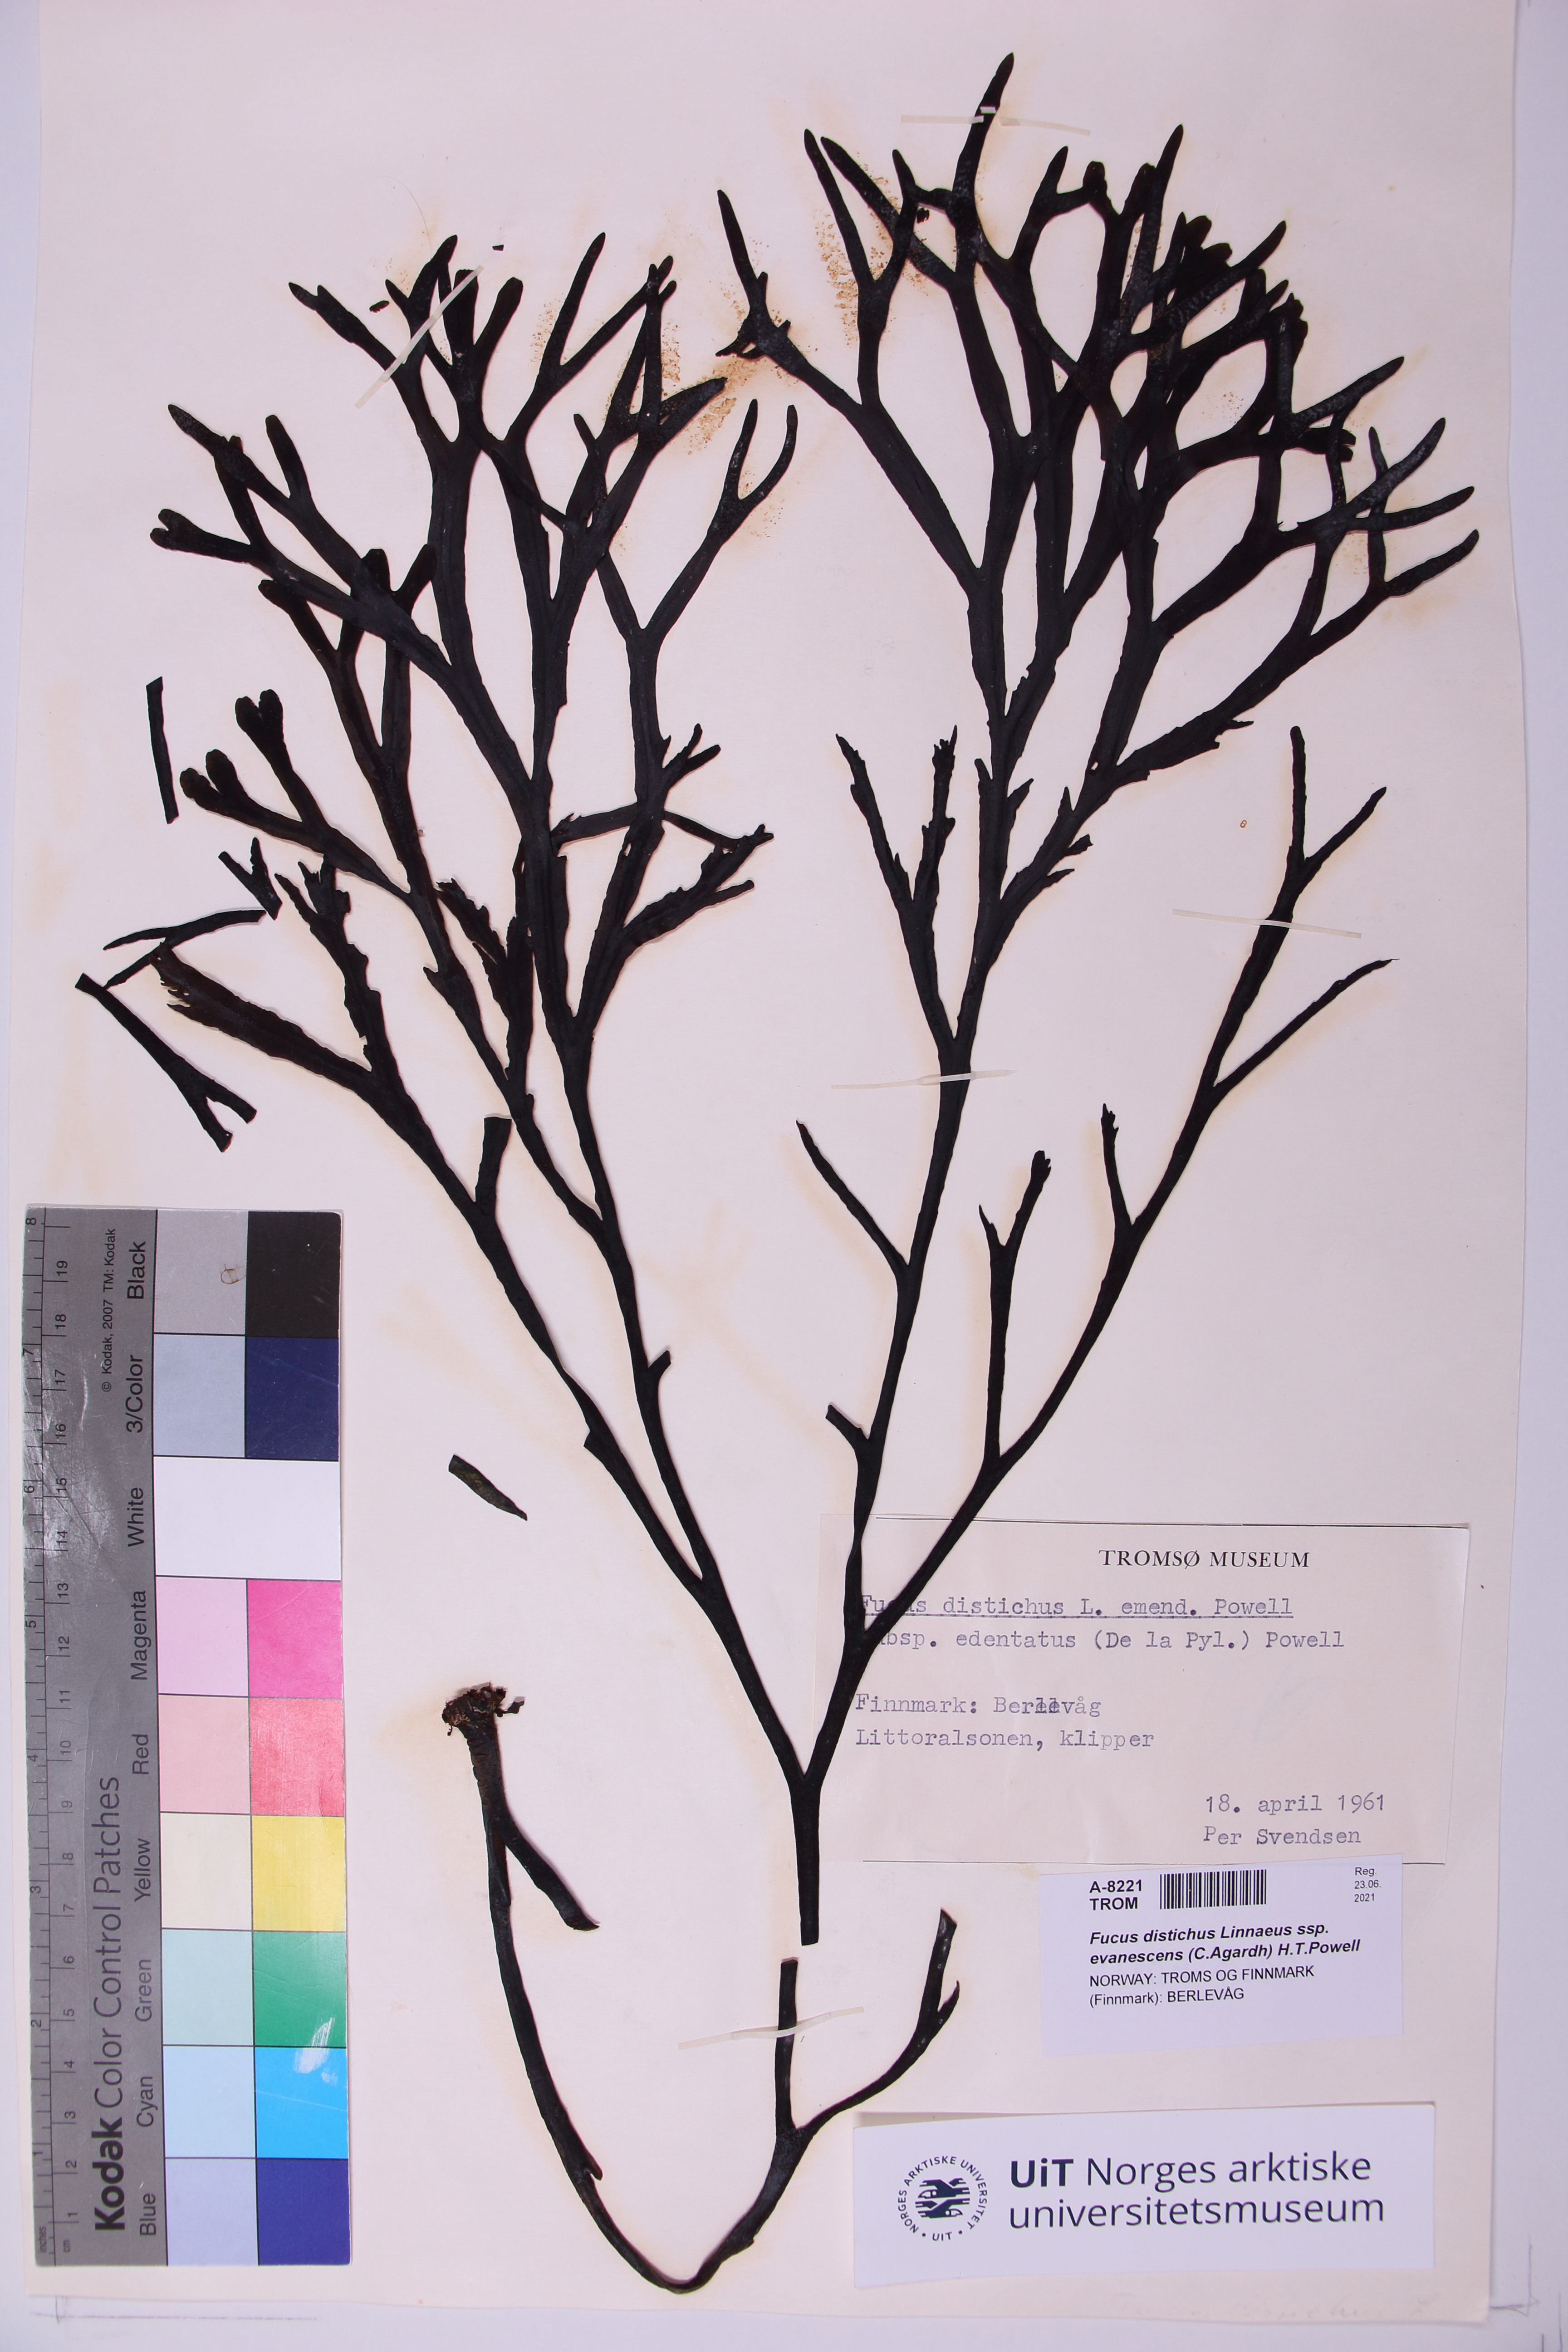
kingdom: Chromista
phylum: Ochrophyta
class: Phaeophyceae
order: Fucales
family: Fucaceae
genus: Fucus
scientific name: Fucus evanescens
